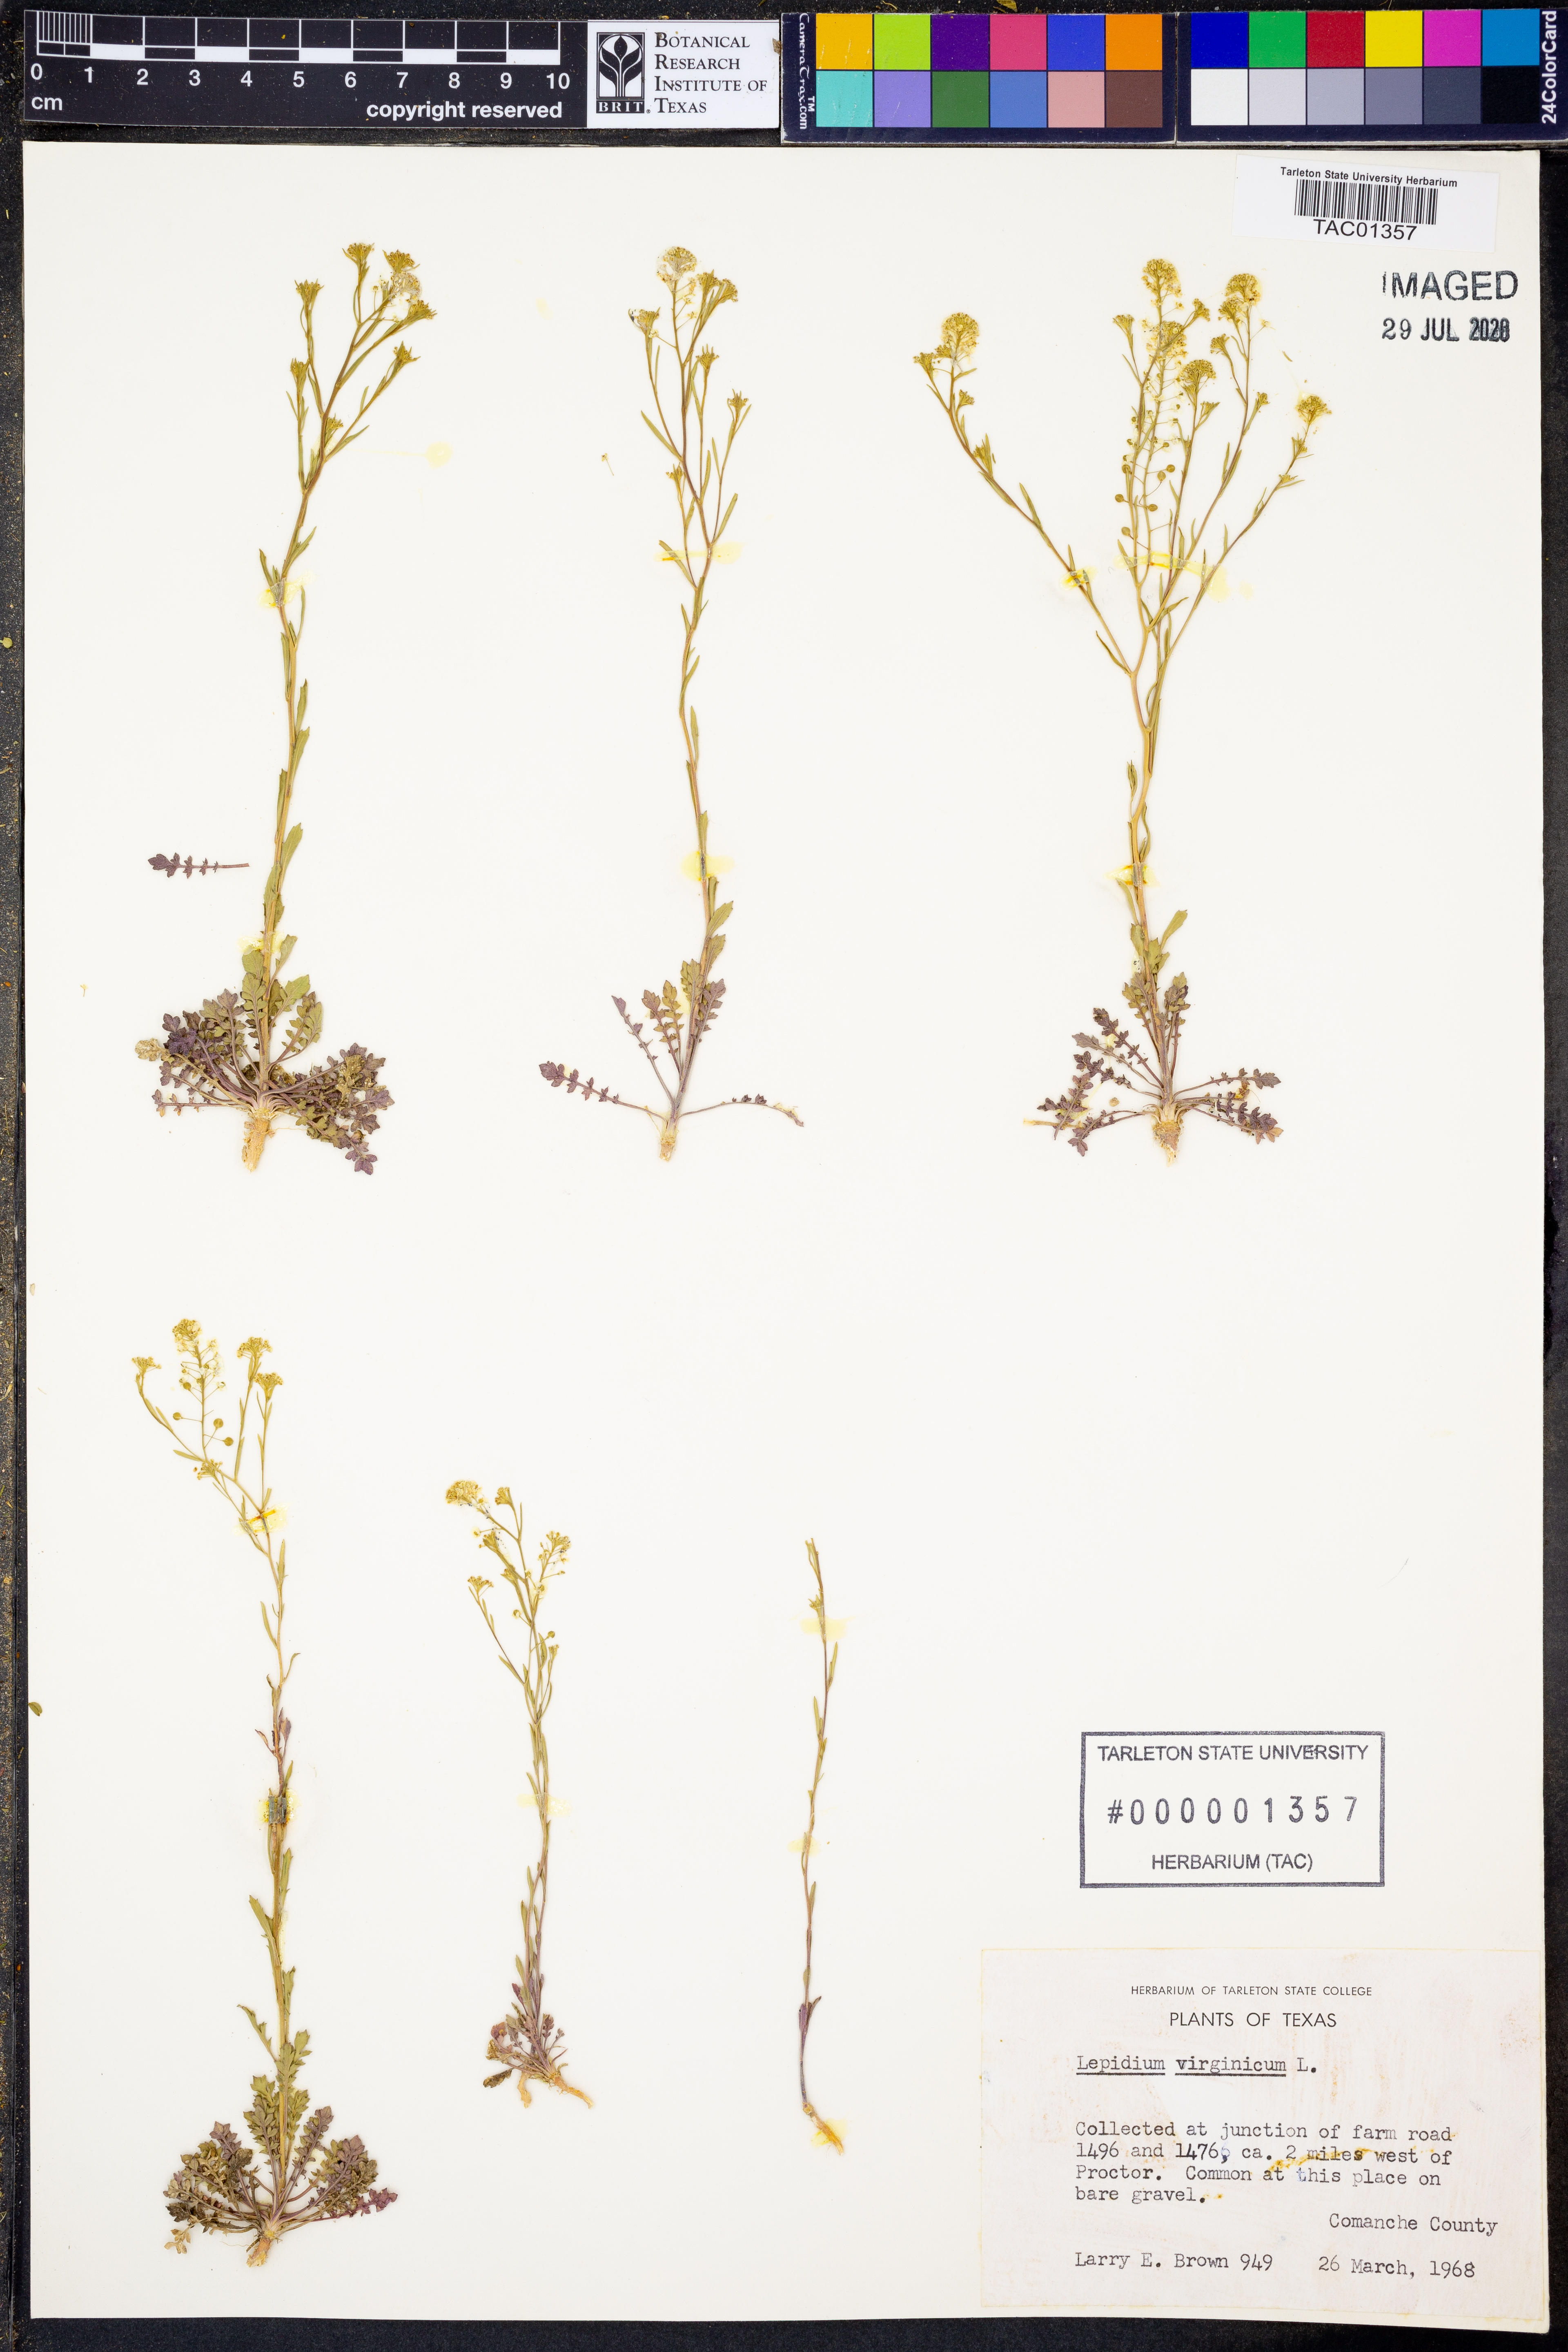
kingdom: Plantae
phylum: Tracheophyta
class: Magnoliopsida
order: Brassicales
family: Brassicaceae
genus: Lepidium
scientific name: Lepidium virginicum
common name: Least pepperwort
